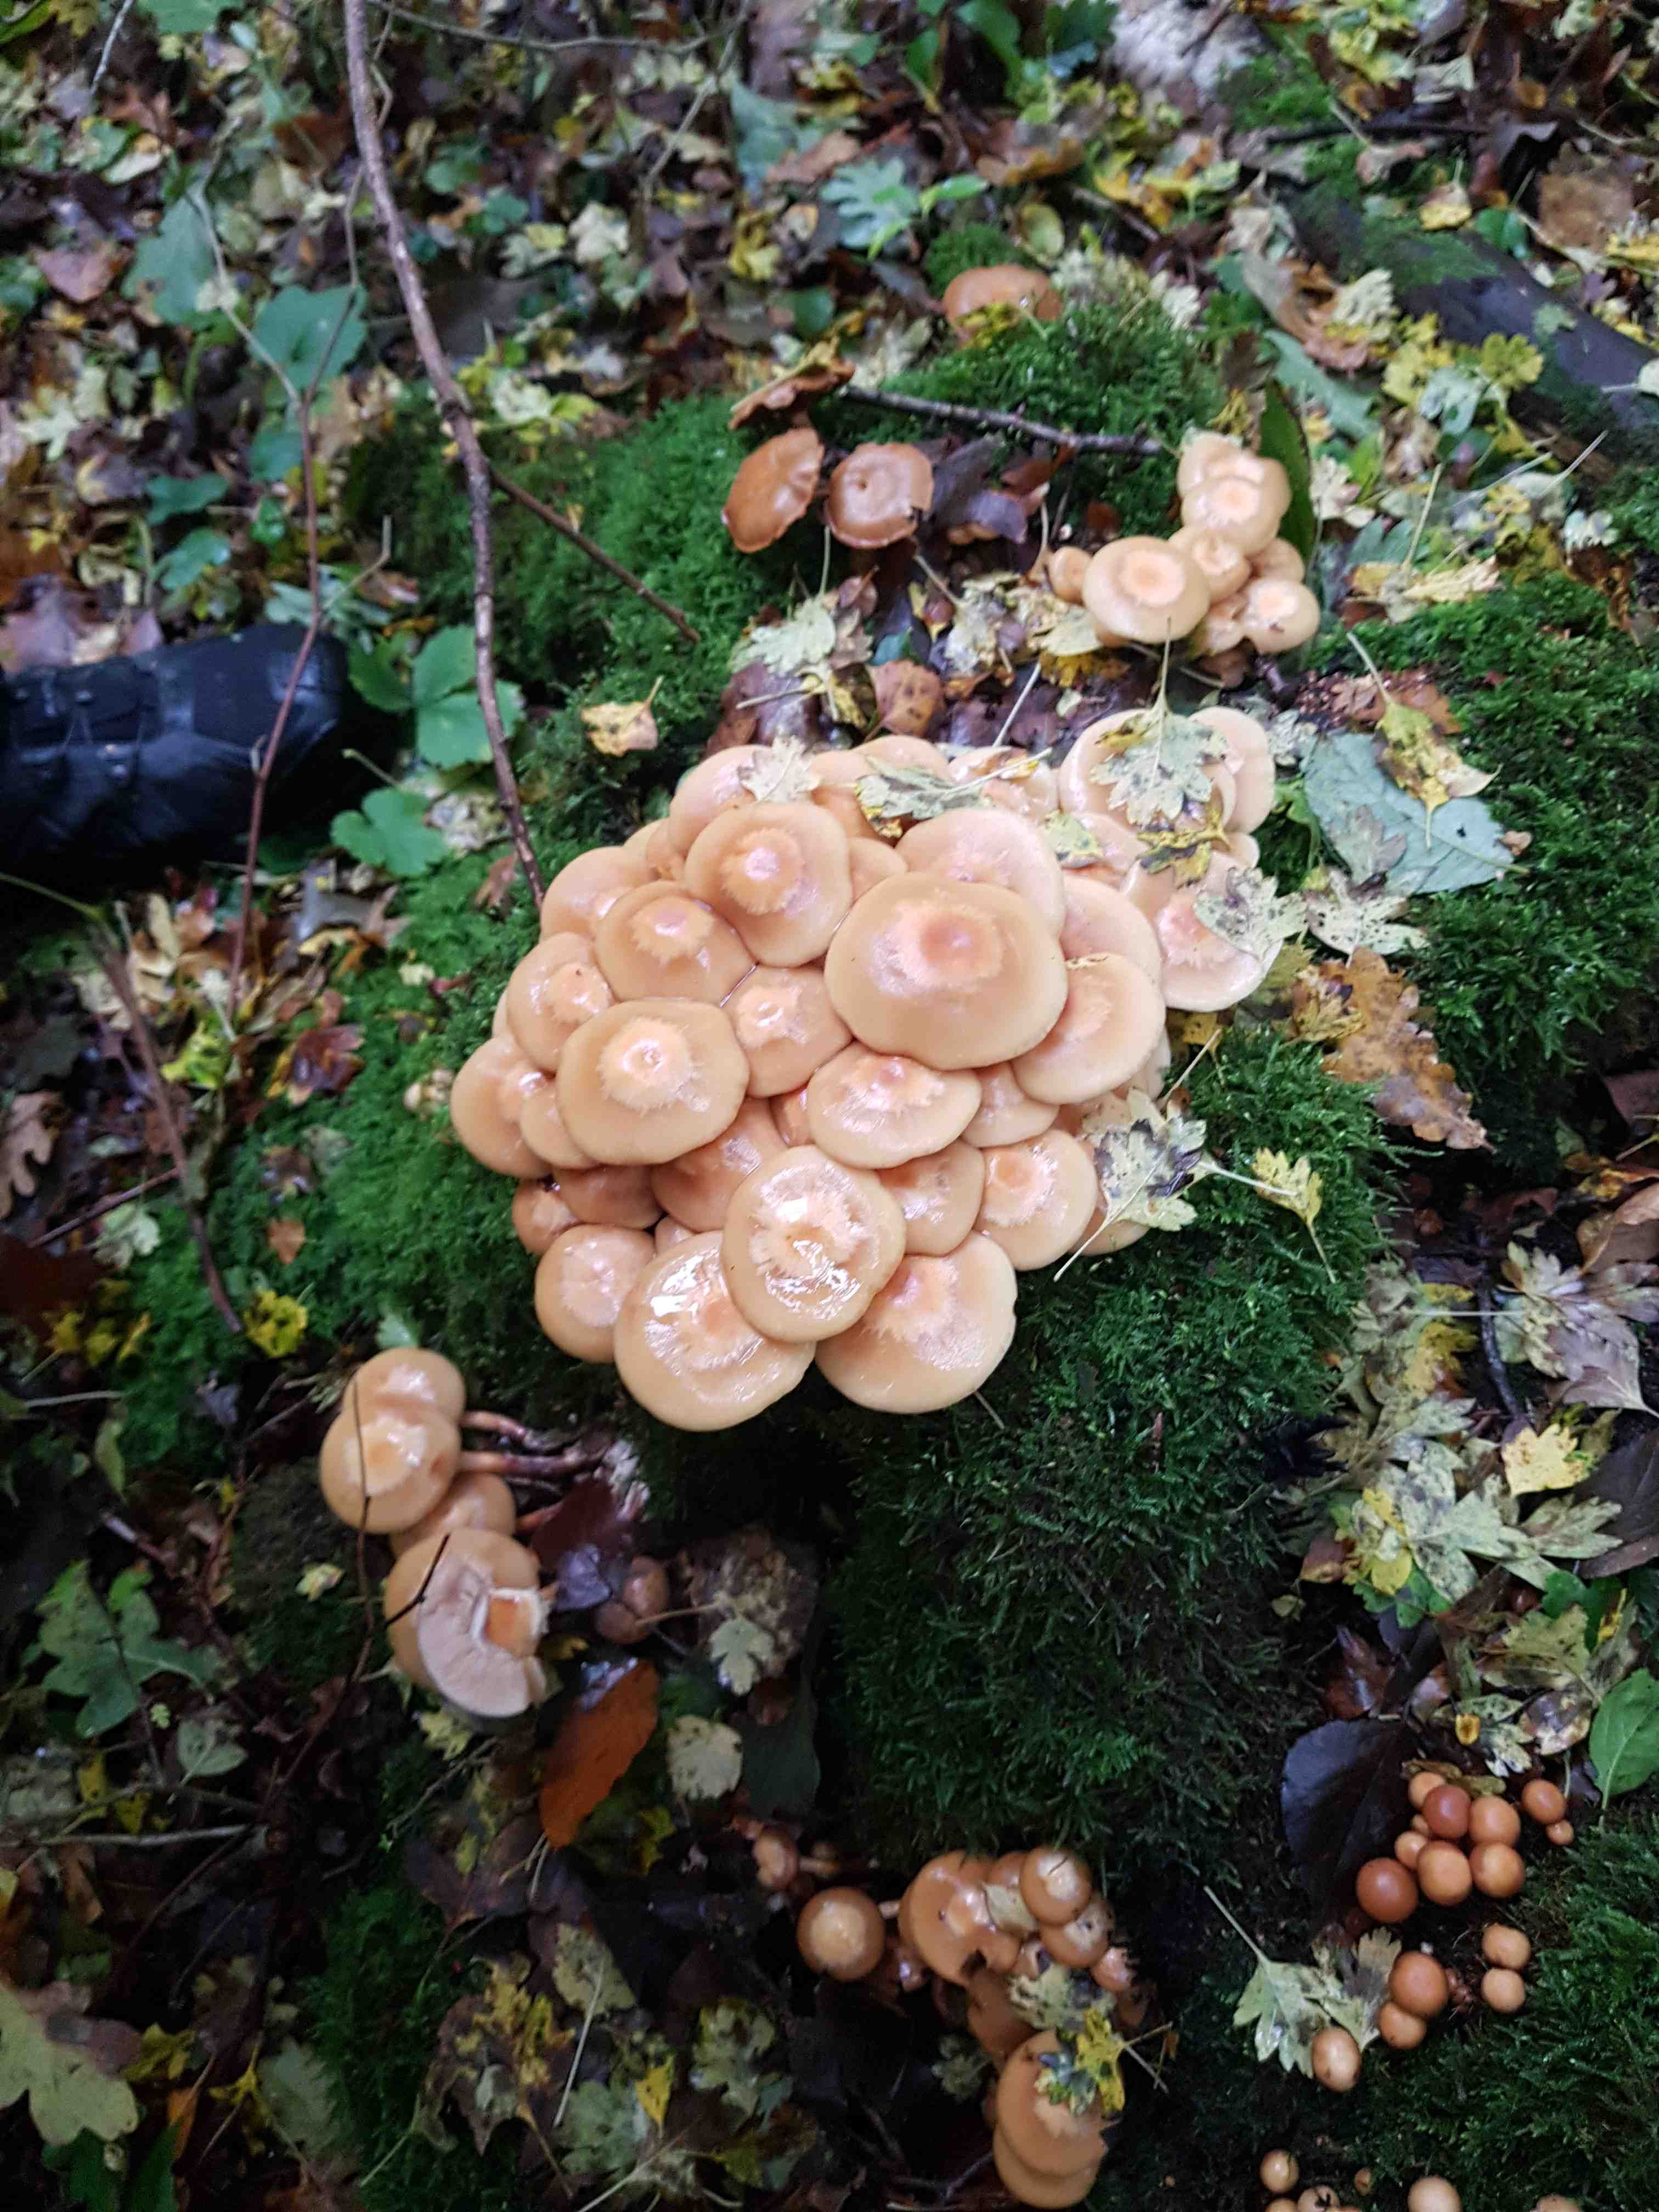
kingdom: Fungi
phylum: Basidiomycota
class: Agaricomycetes
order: Agaricales
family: Strophariaceae
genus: Kuehneromyces
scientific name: Kuehneromyces mutabilis
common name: foranderlig skælhat
